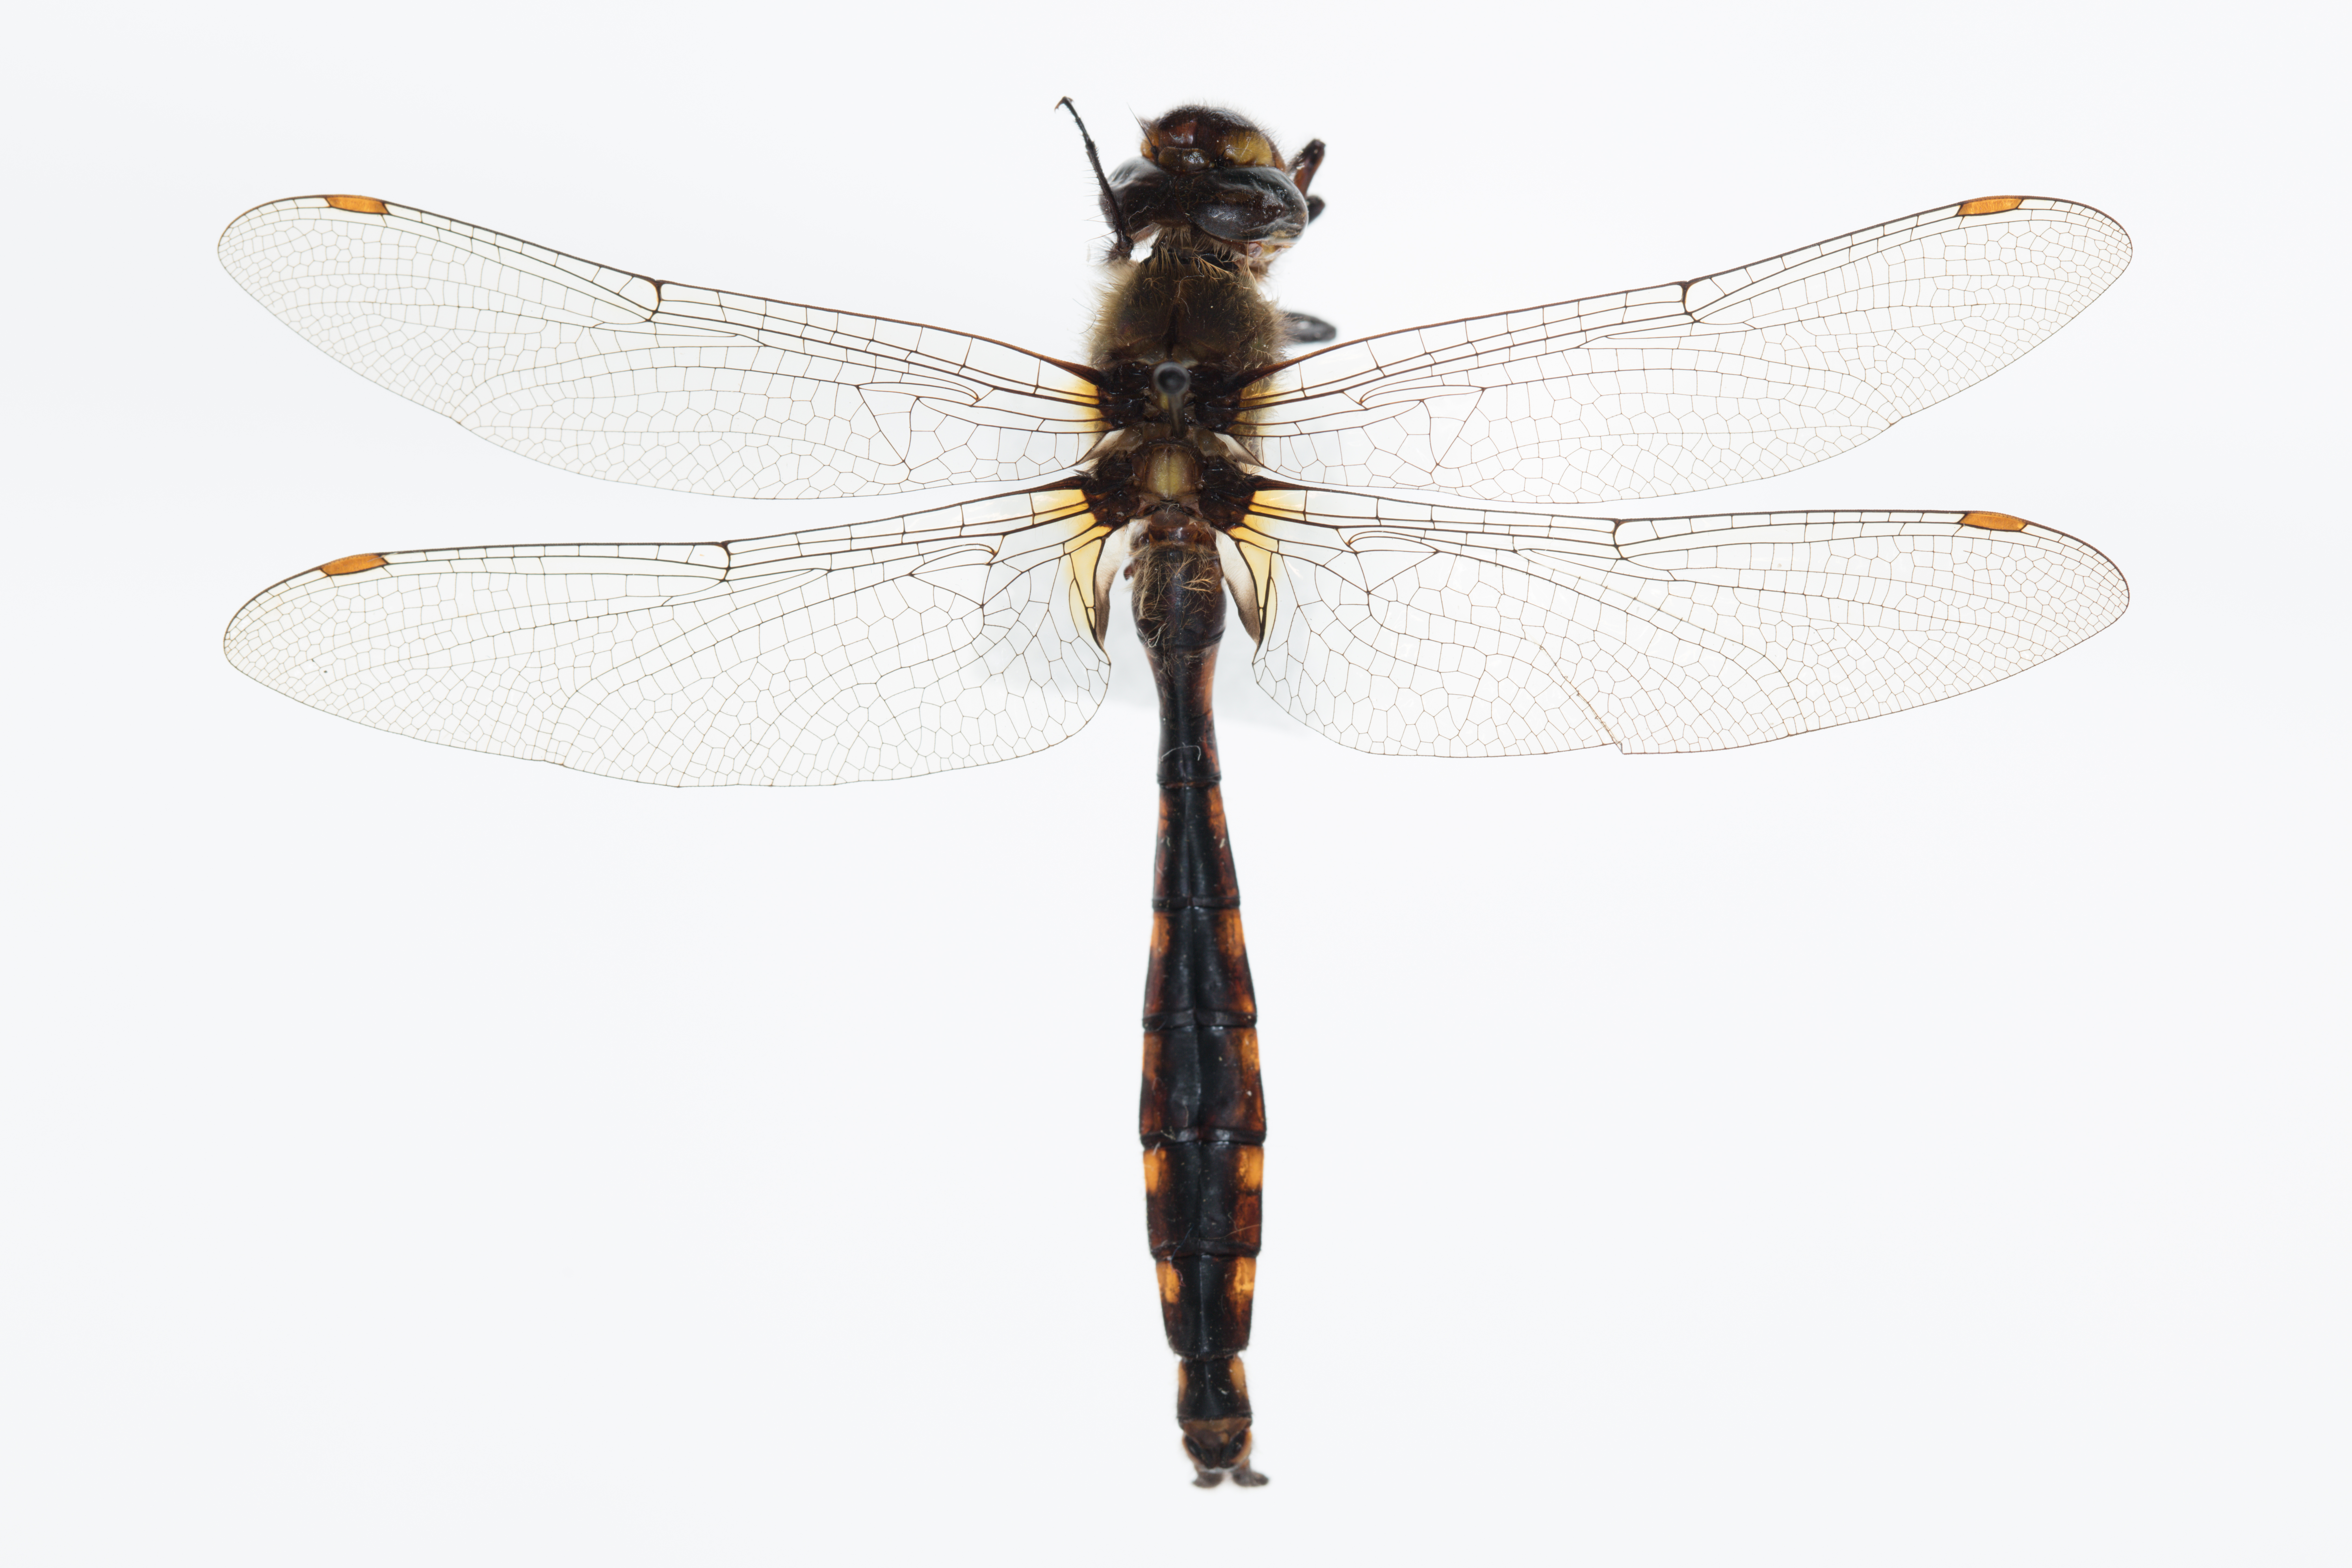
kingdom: Animalia
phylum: Arthropoda
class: Insecta
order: Odonata
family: Corduliidae
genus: Procordulia
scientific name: Procordulia grayi
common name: Yellow spotted dragonfly
